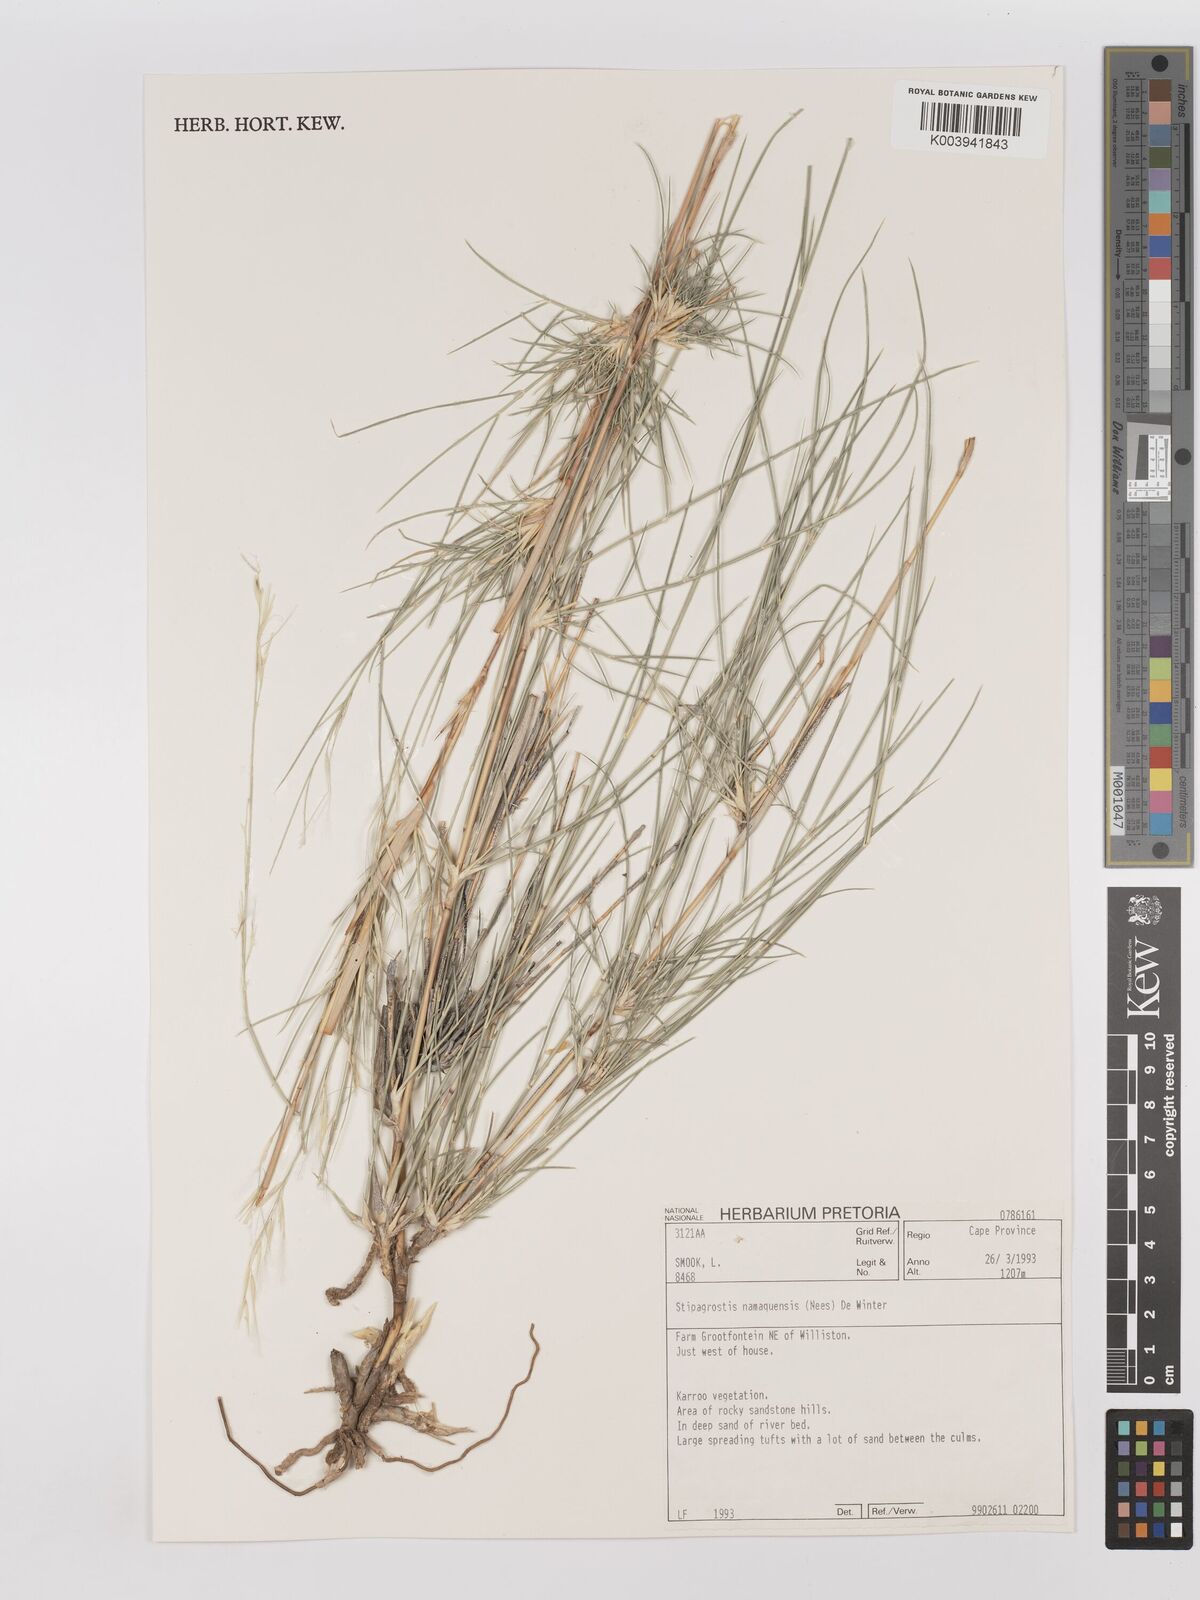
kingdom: Plantae
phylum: Tracheophyta
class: Liliopsida
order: Poales
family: Poaceae
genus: Stipagrostis
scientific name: Stipagrostis namaquensis
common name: River bushman grass
